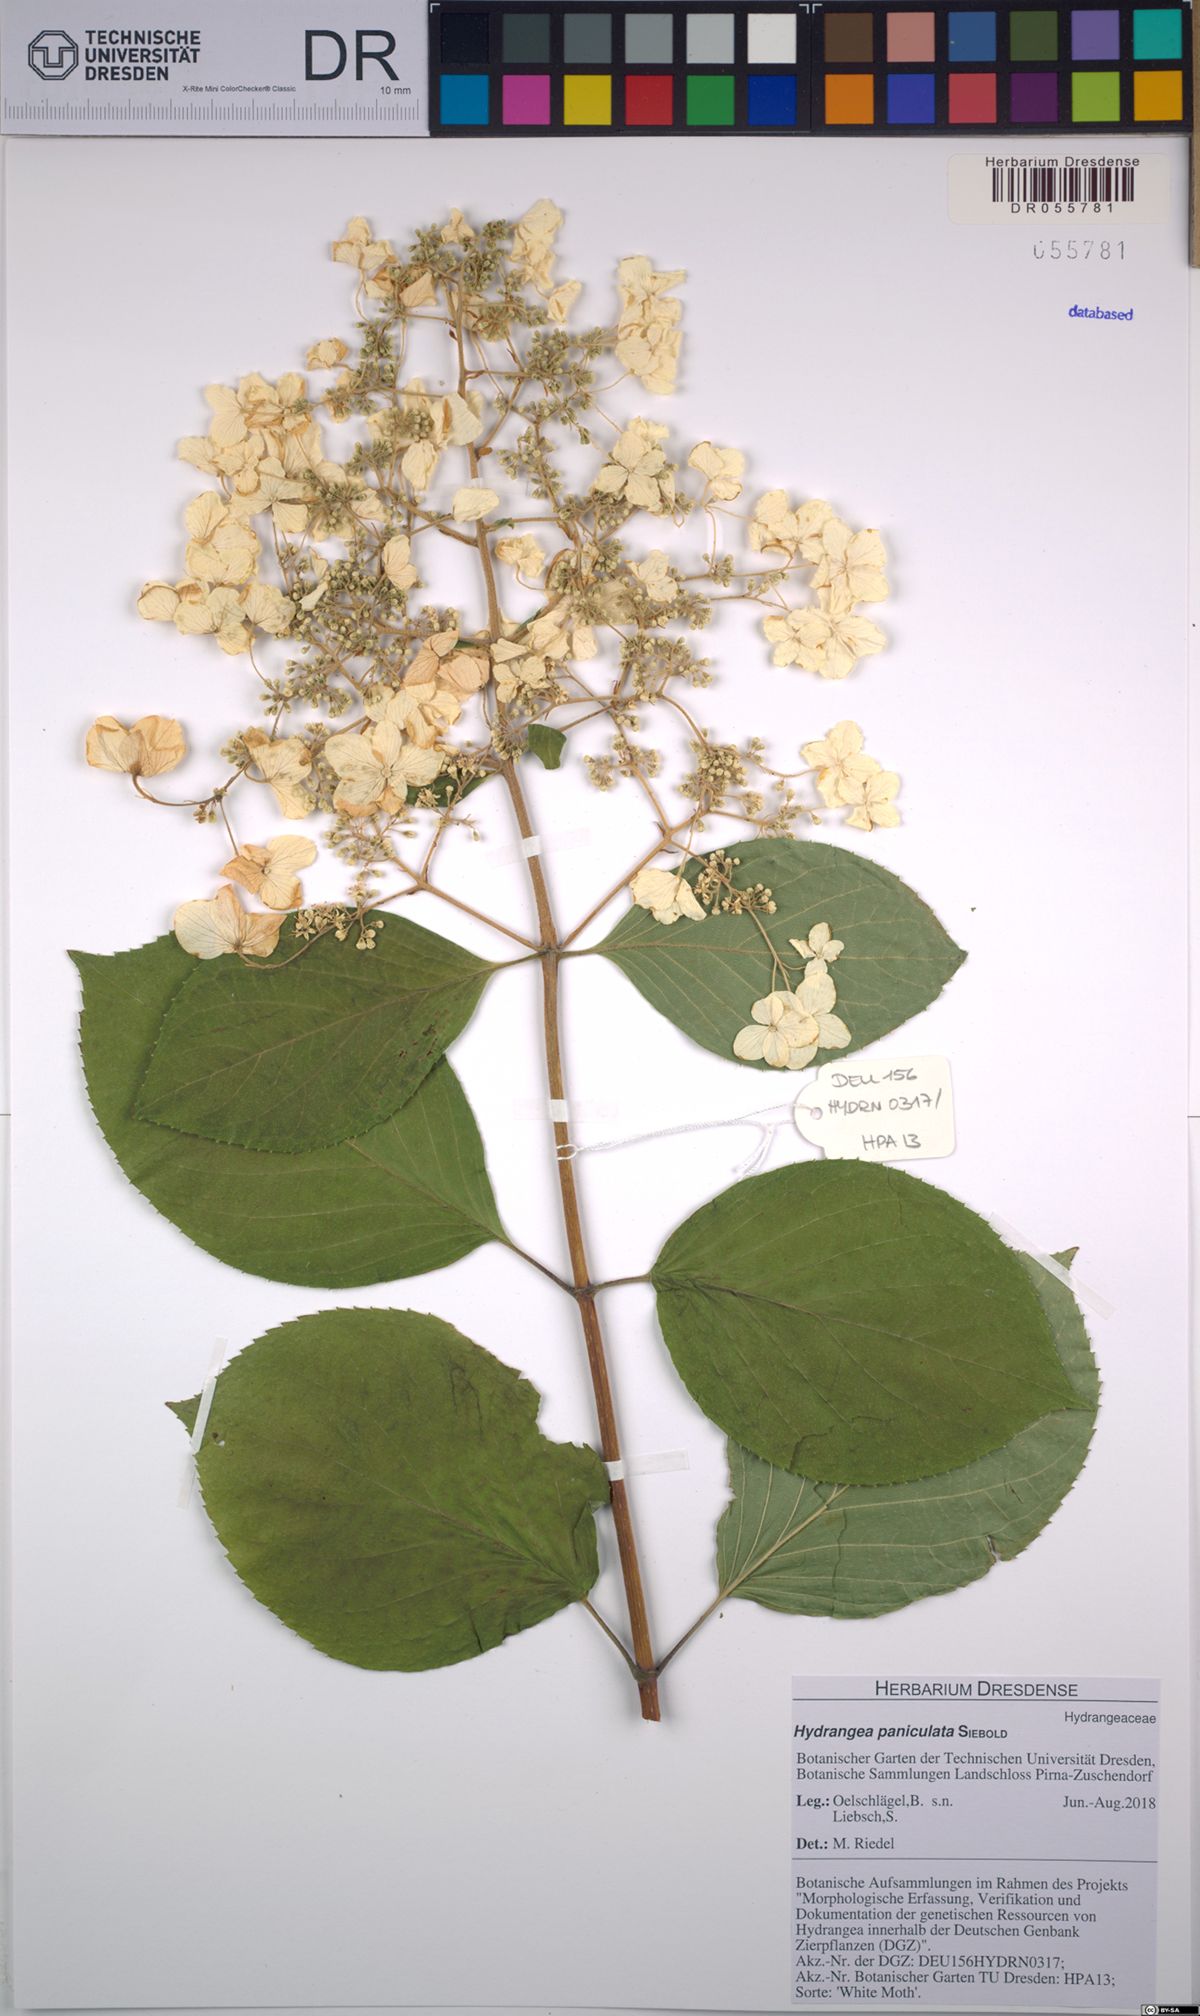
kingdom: Plantae
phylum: Tracheophyta
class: Magnoliopsida
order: Cornales
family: Hydrangeaceae
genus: Hydrangea
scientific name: Hydrangea paniculata
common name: Panicled hydrangea
